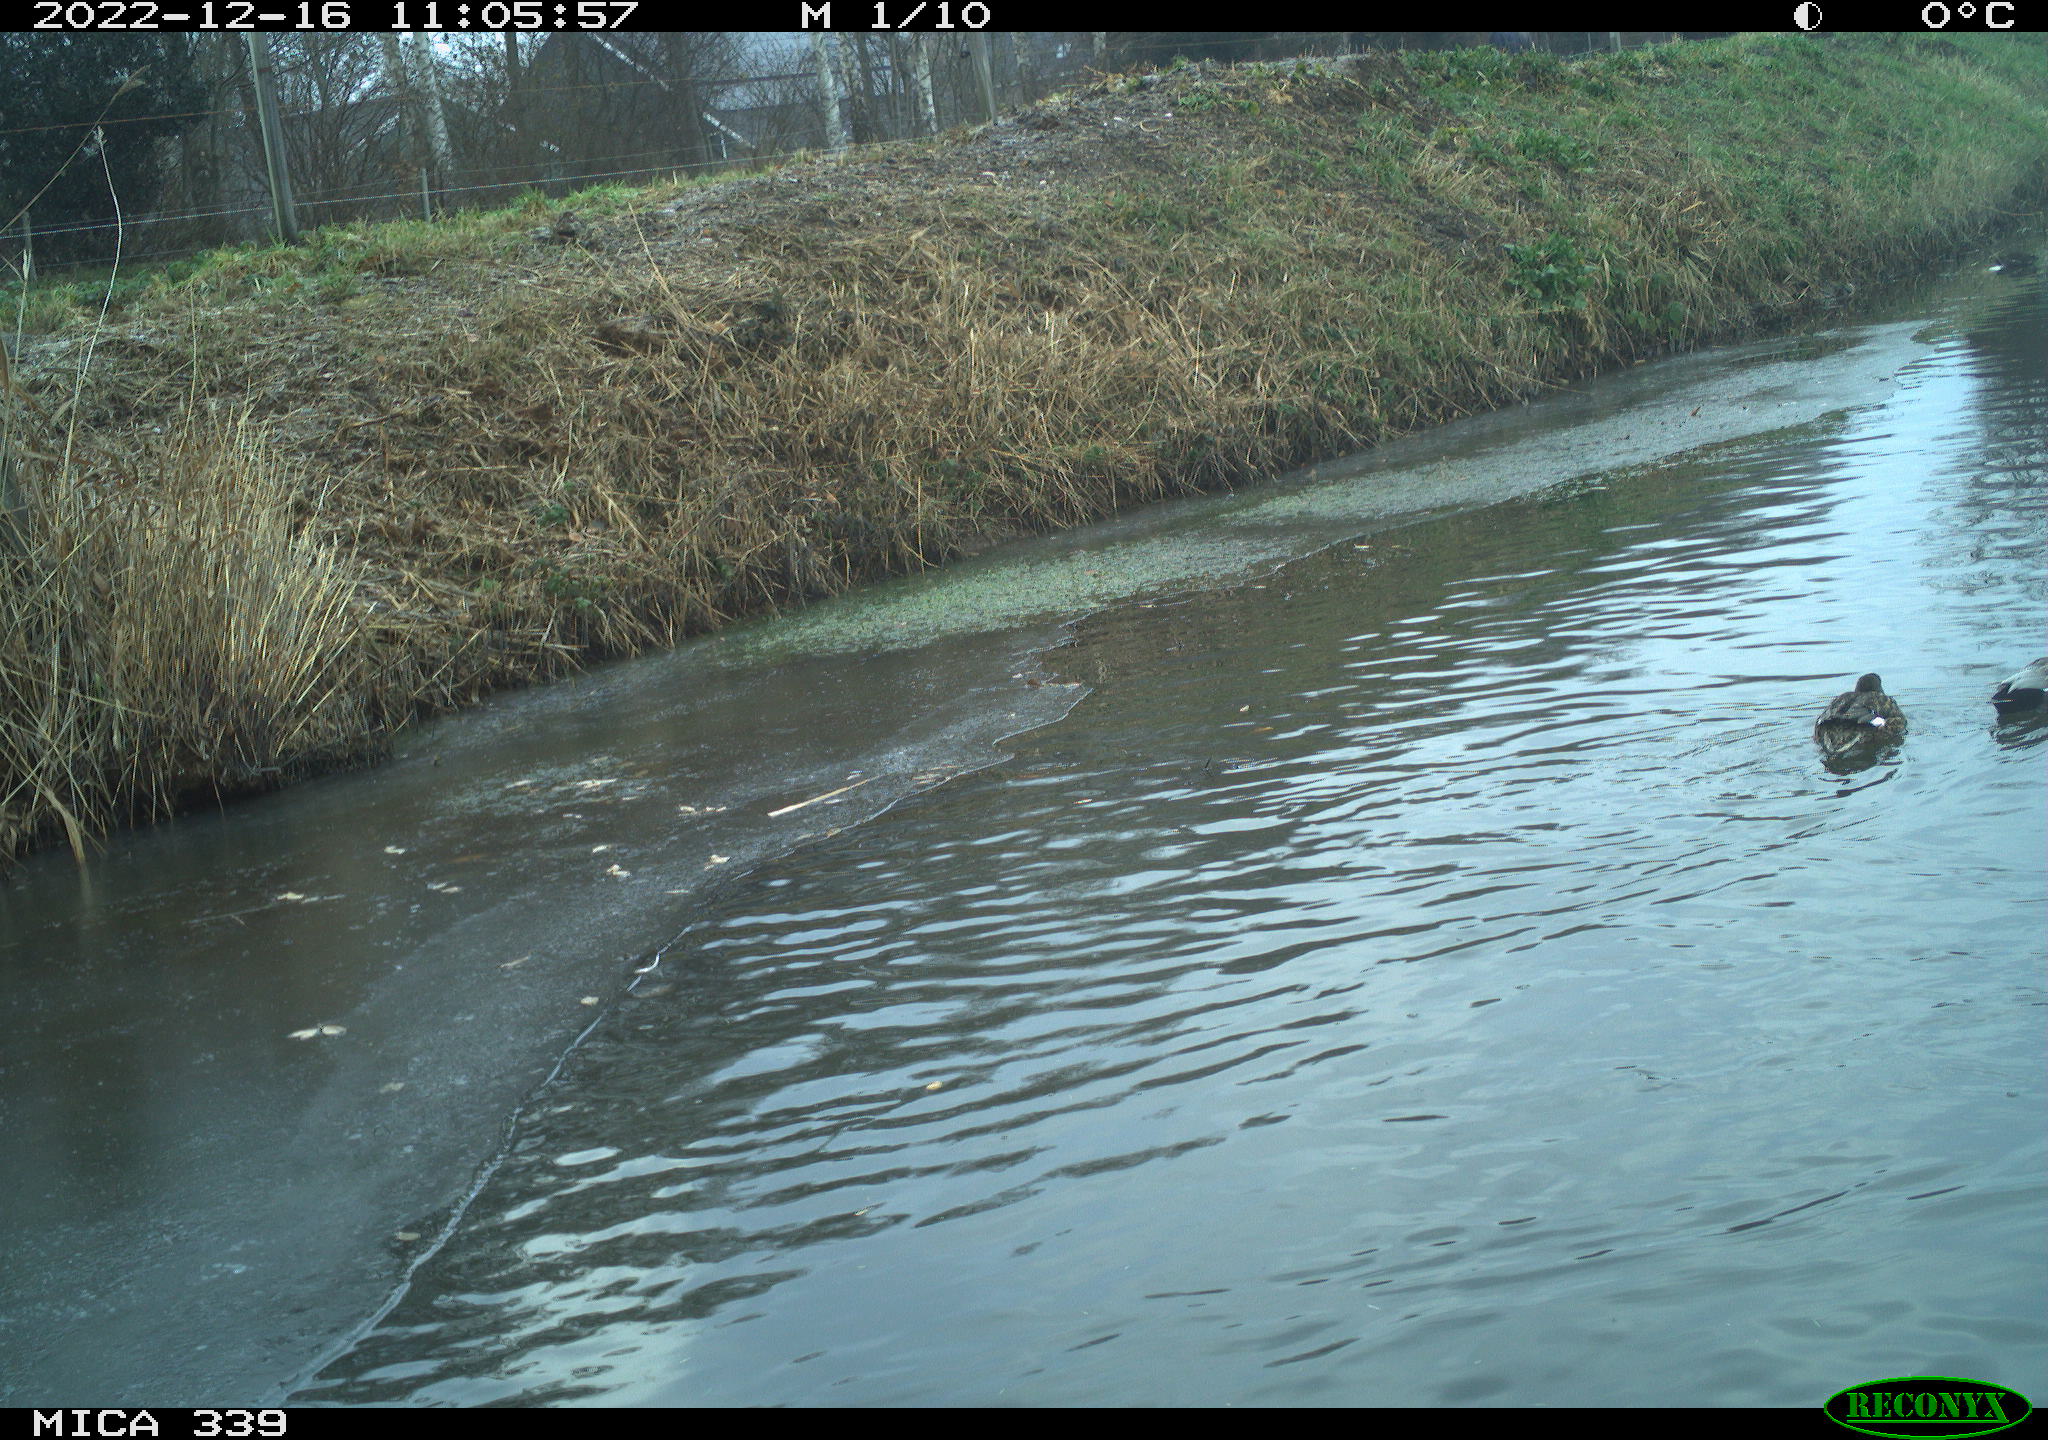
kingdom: Animalia
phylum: Chordata
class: Aves
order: Anseriformes
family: Anatidae
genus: Anas
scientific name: Anas
